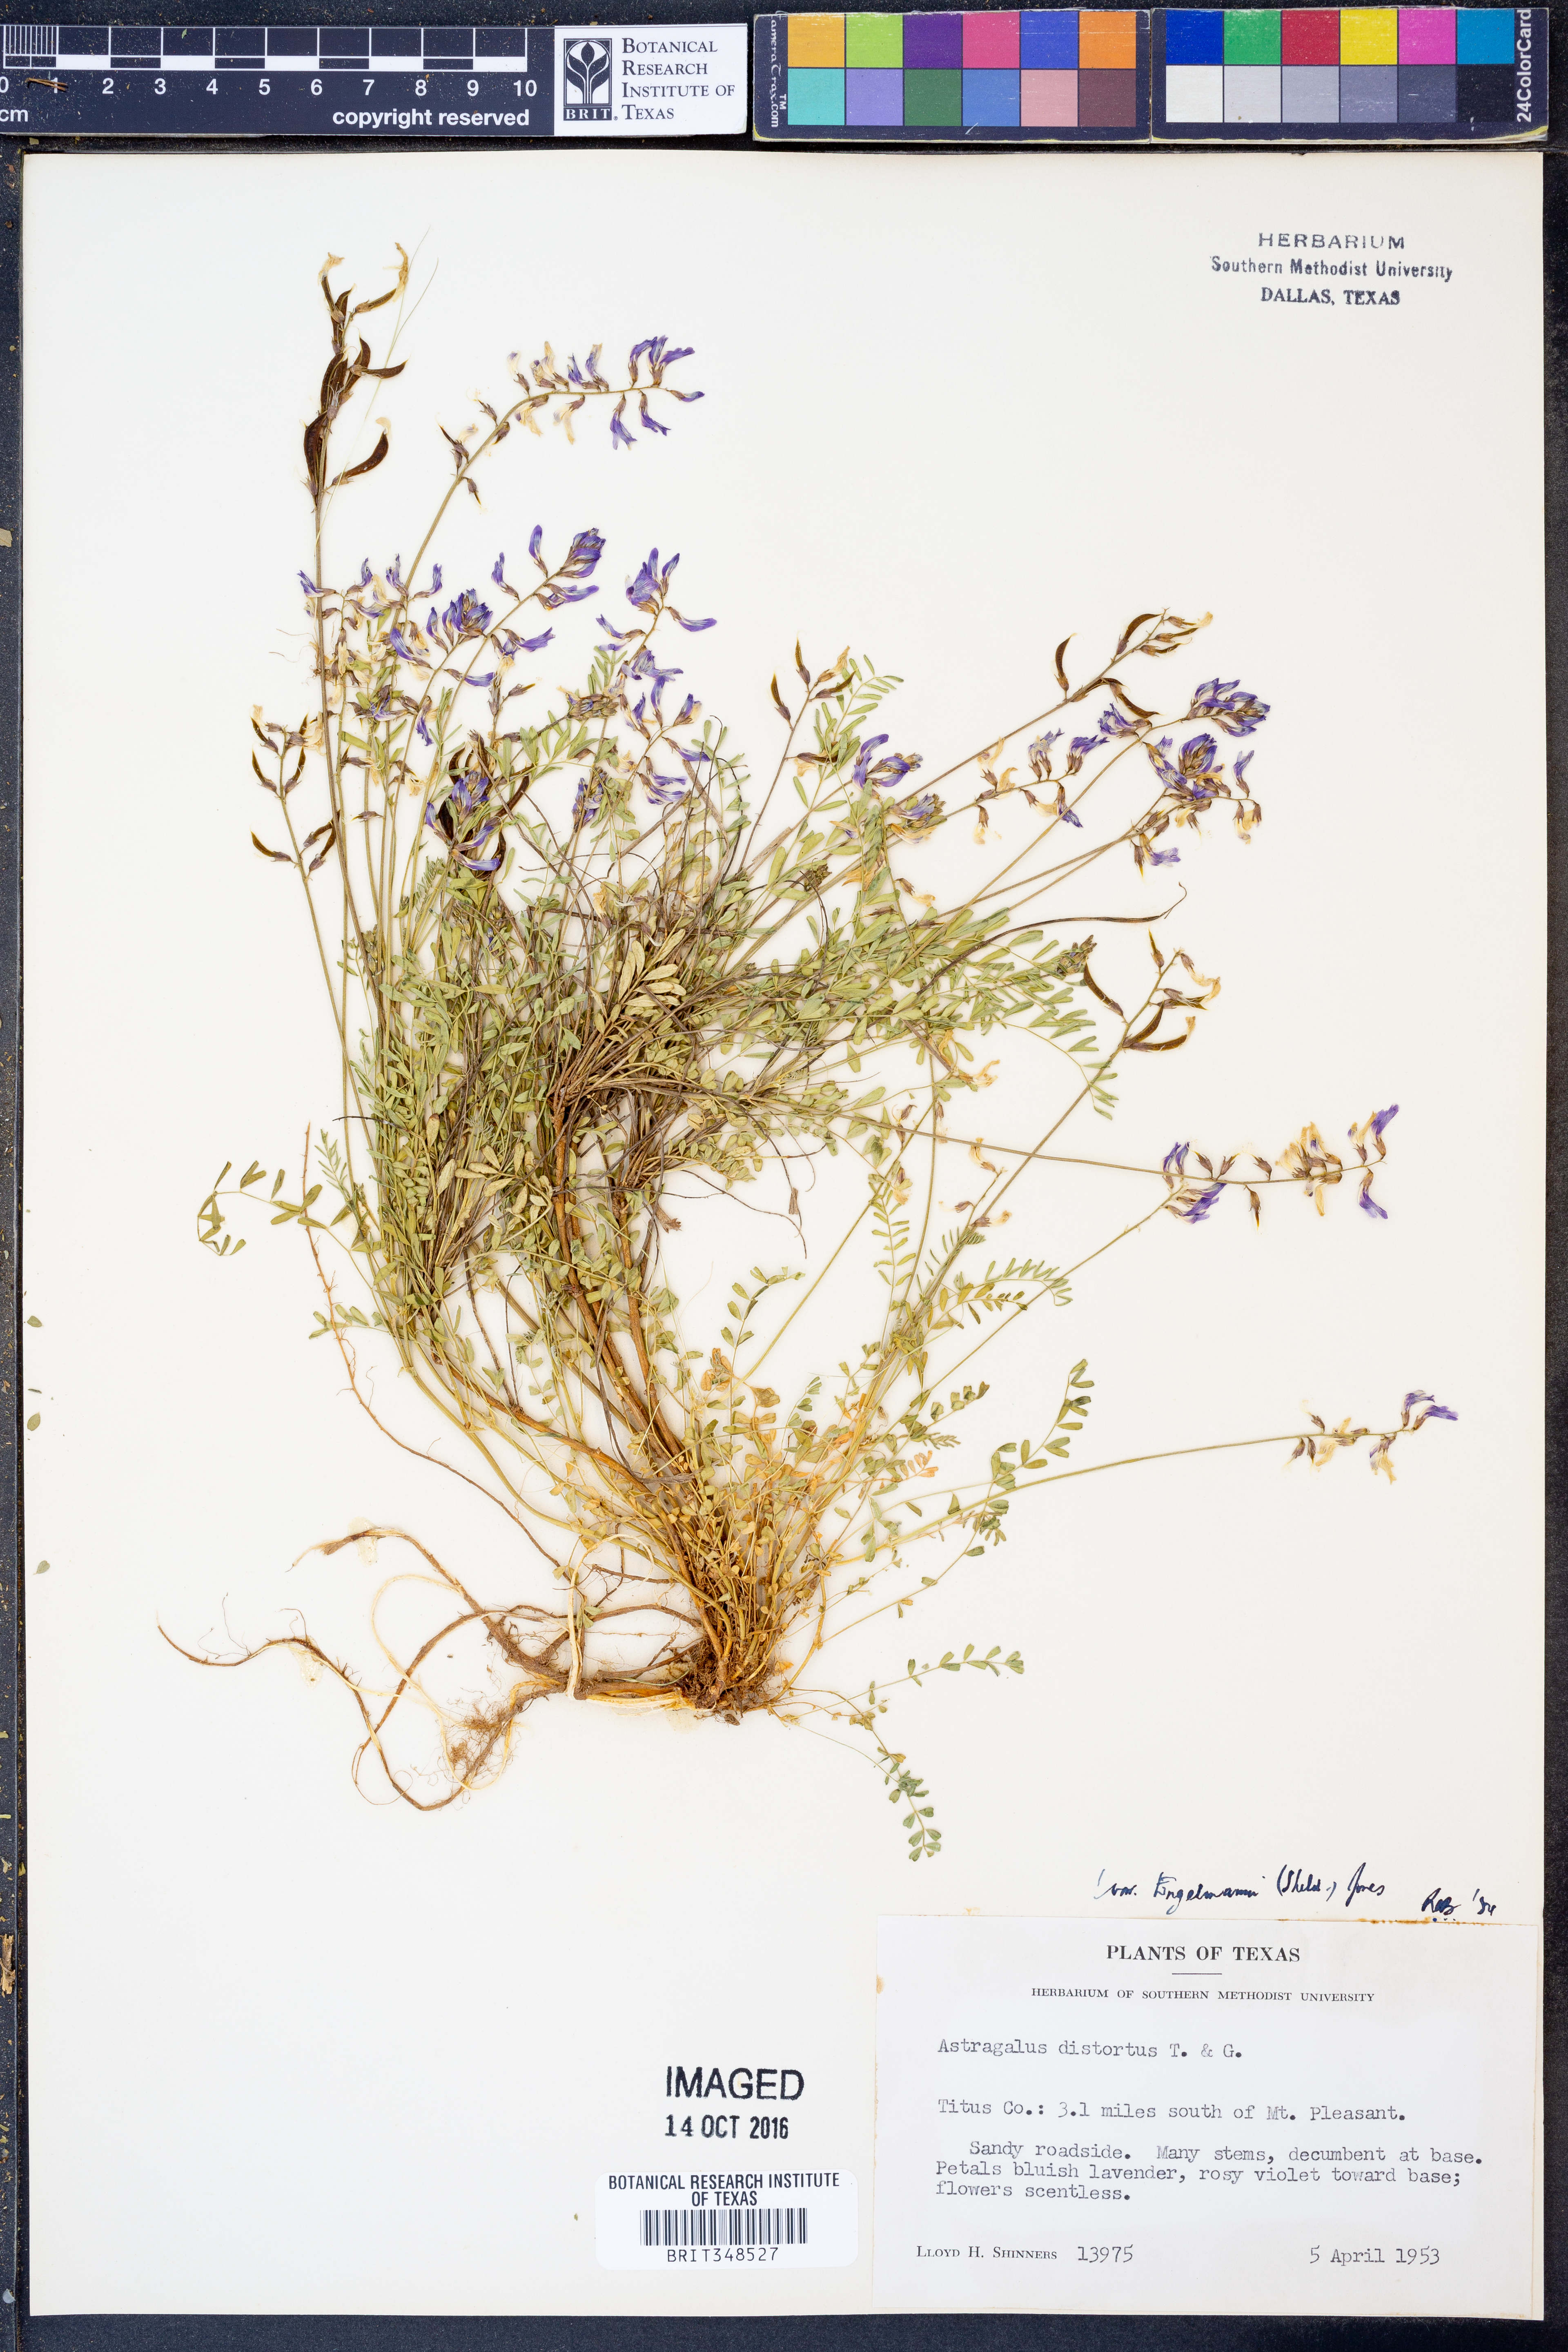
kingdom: Plantae
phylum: Tracheophyta
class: Magnoliopsida
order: Fabales
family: Fabaceae
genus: Astragalus
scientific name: Astragalus distortus
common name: Ozark milk-vetch
